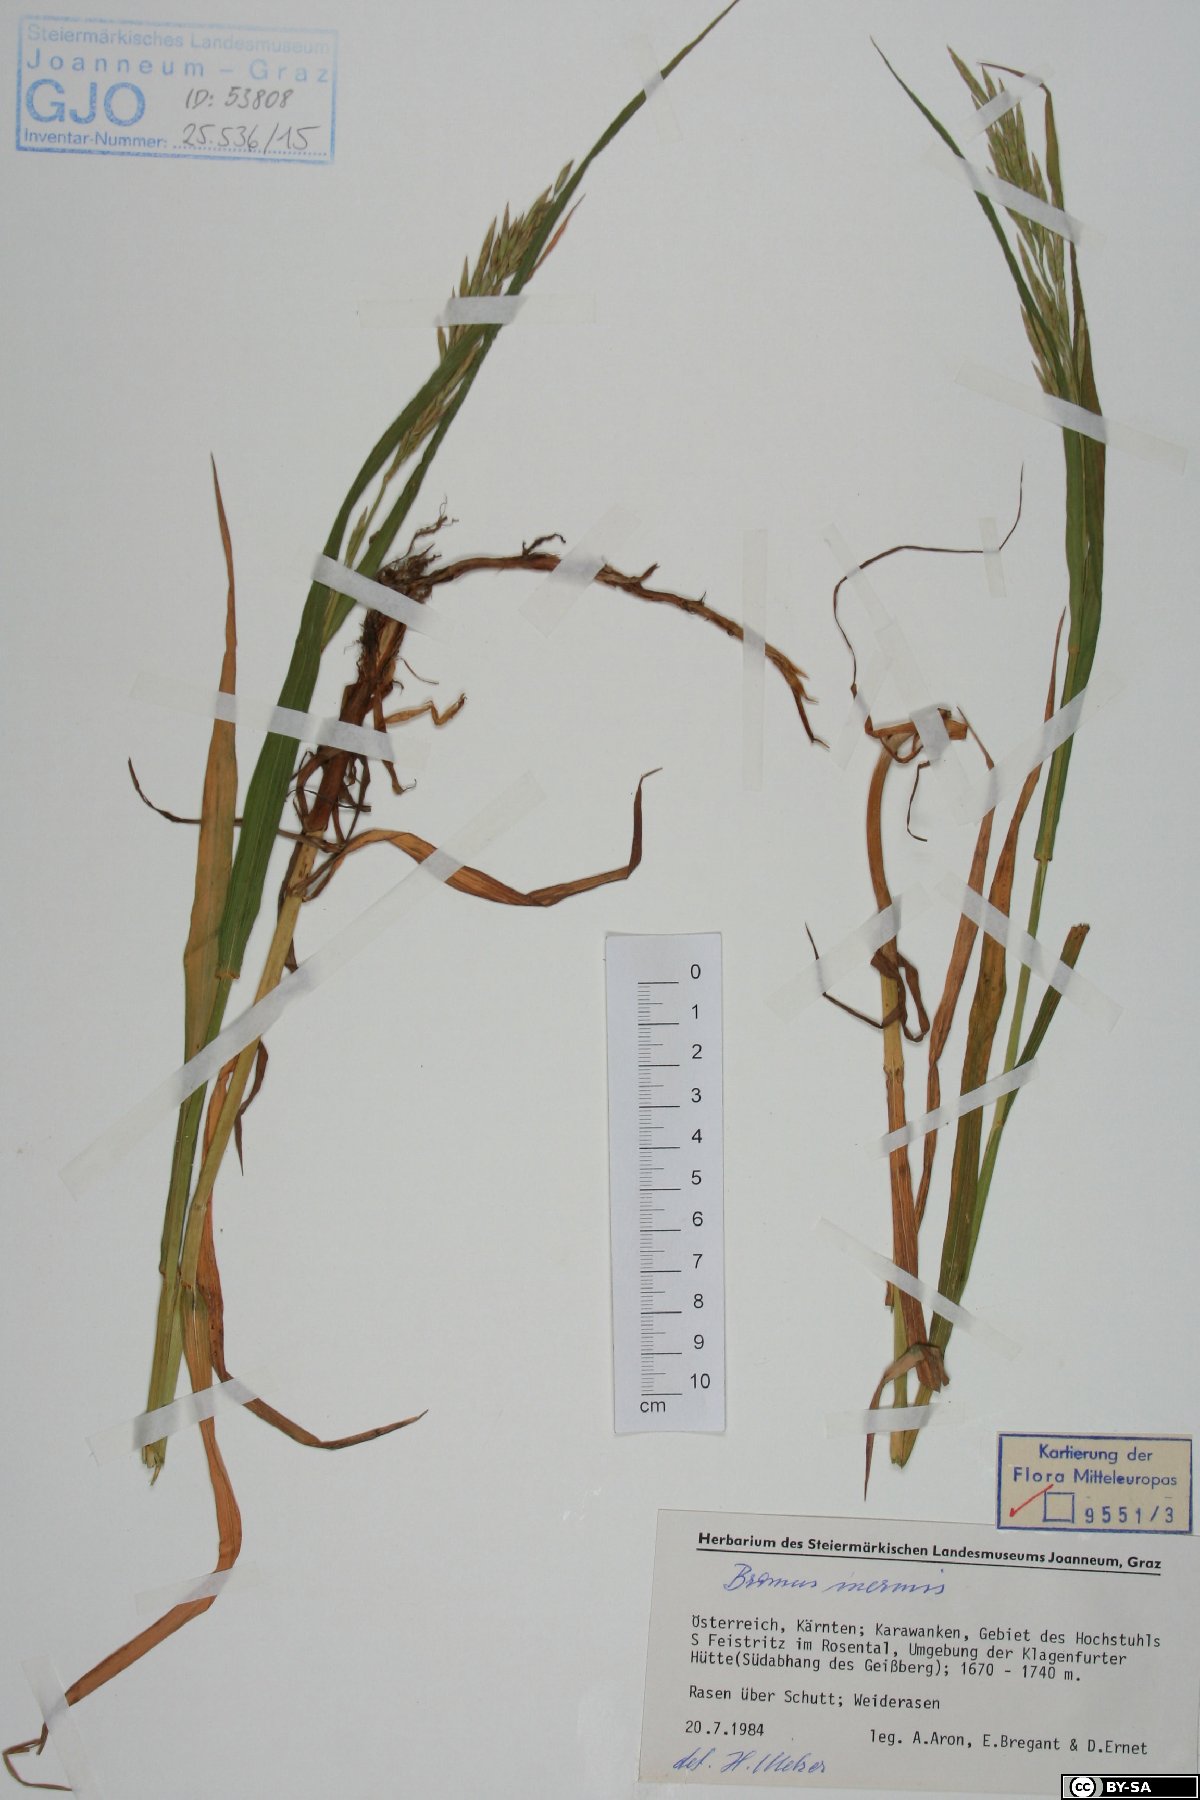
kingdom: Plantae
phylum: Tracheophyta
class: Liliopsida
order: Poales
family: Poaceae
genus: Bromus
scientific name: Bromus inermis
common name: Smooth brome
